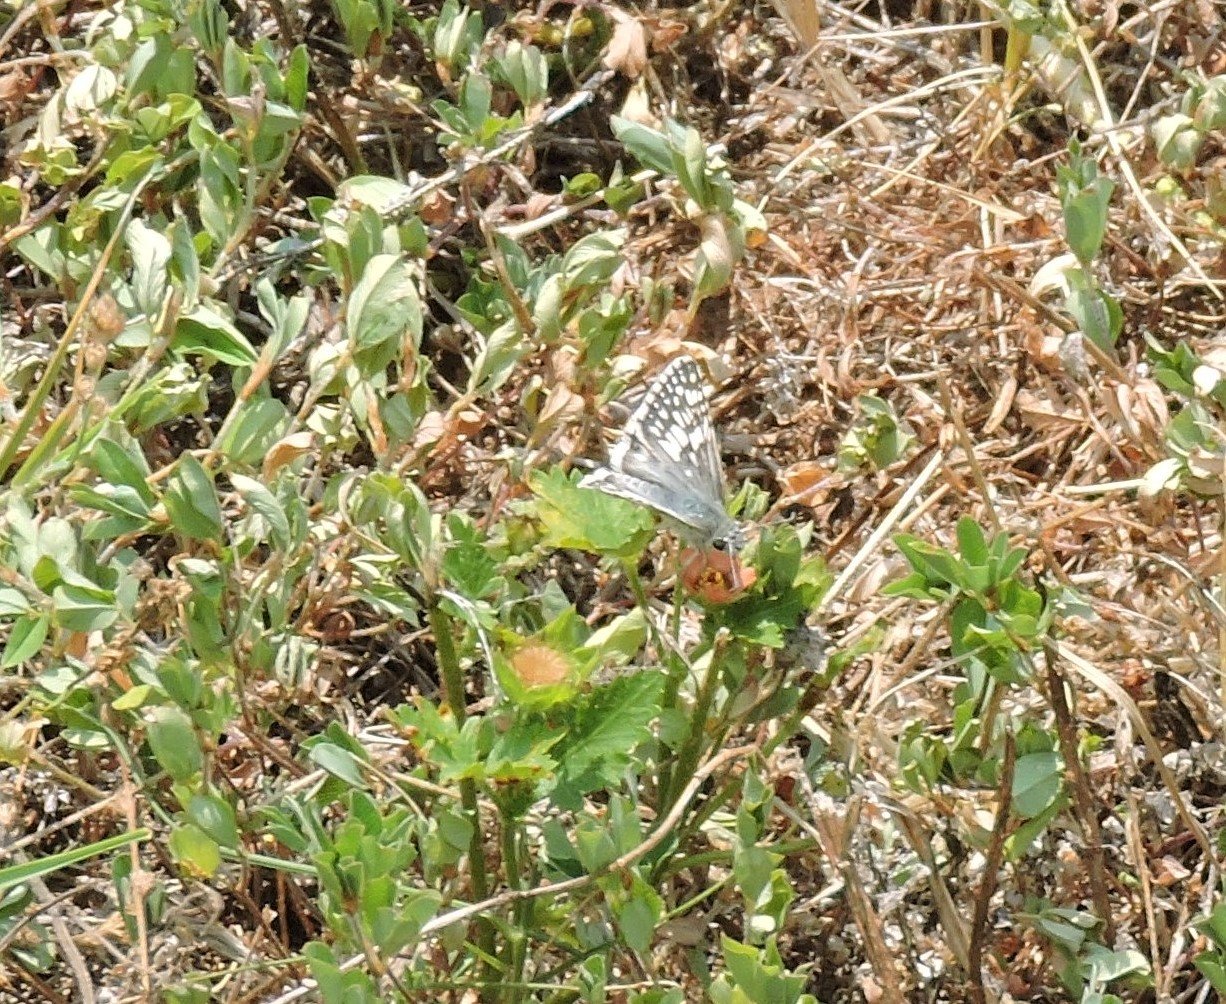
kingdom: Animalia
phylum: Arthropoda
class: Insecta
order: Lepidoptera
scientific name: Lepidoptera
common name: Butterflies
